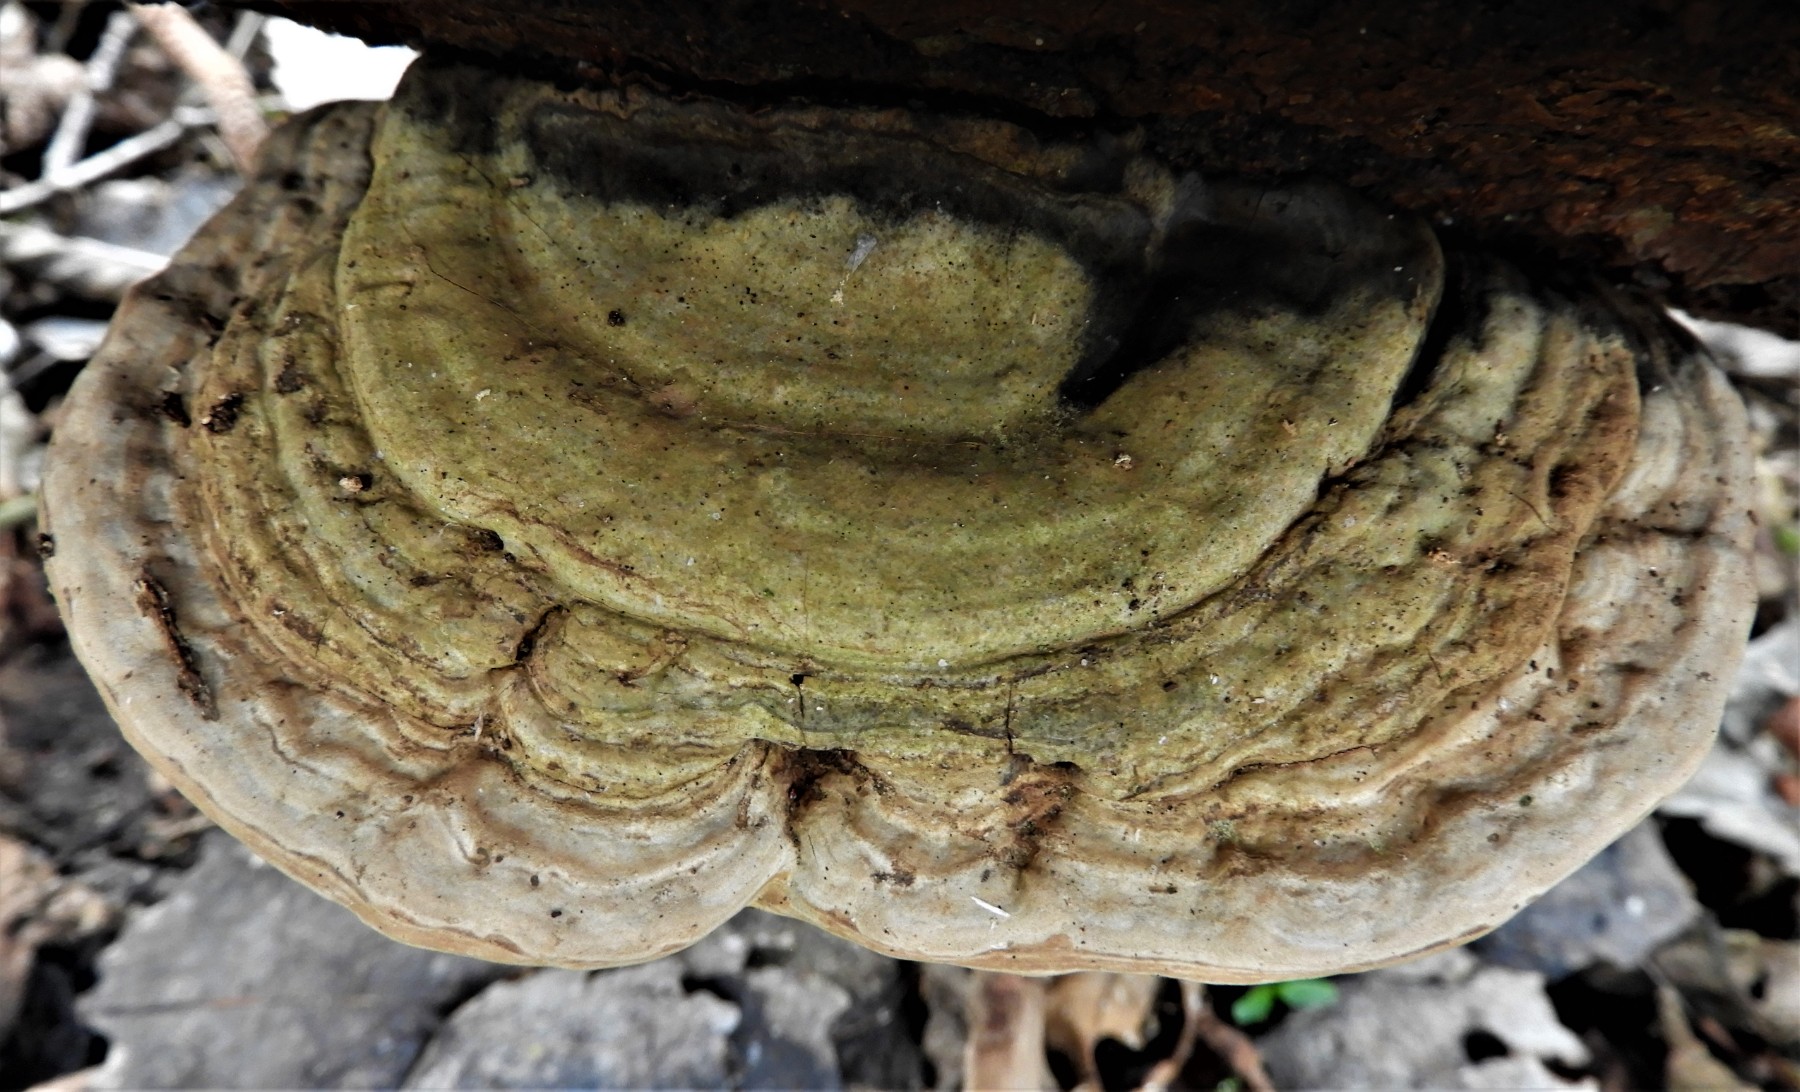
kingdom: Fungi
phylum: Basidiomycota
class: Agaricomycetes
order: Polyporales
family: Polyporaceae
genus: Ganoderma
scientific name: Ganoderma applanatum
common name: flad lakporesvamp
